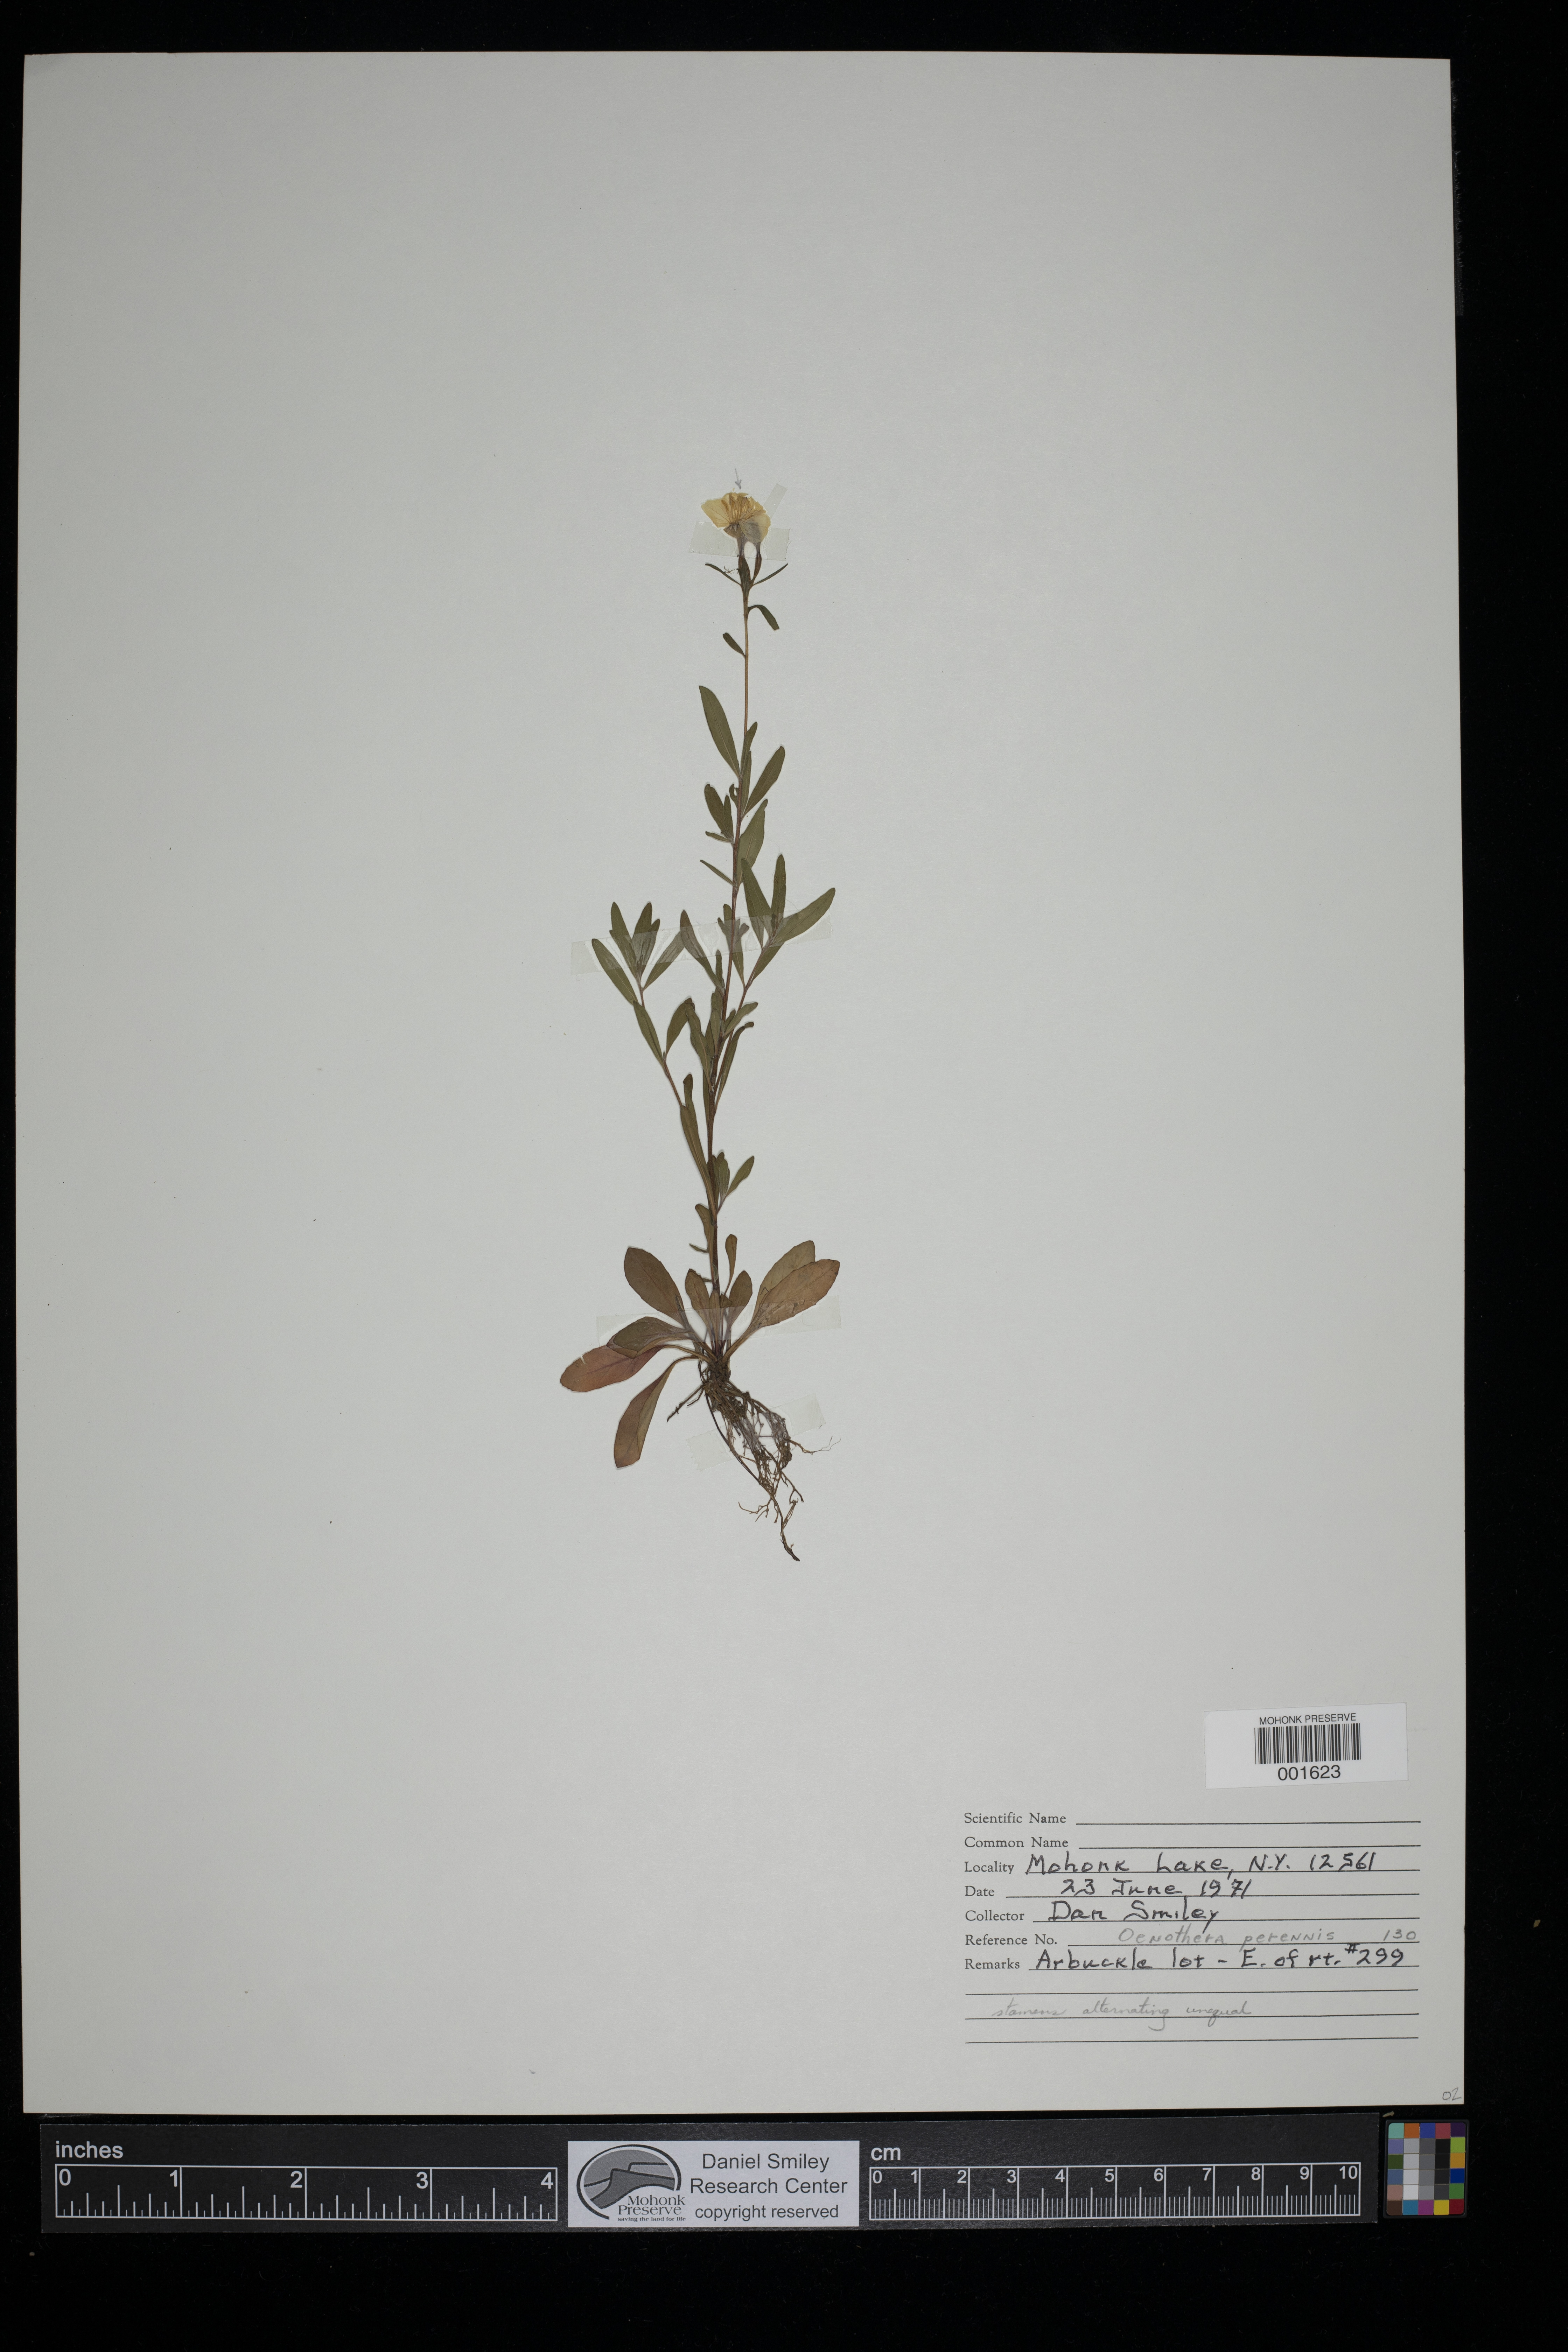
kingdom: Plantae
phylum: Tracheophyta
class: Magnoliopsida
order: Myrtales
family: Onagraceae
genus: Oenothera
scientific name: Oenothera perennis
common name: Small sundrops
